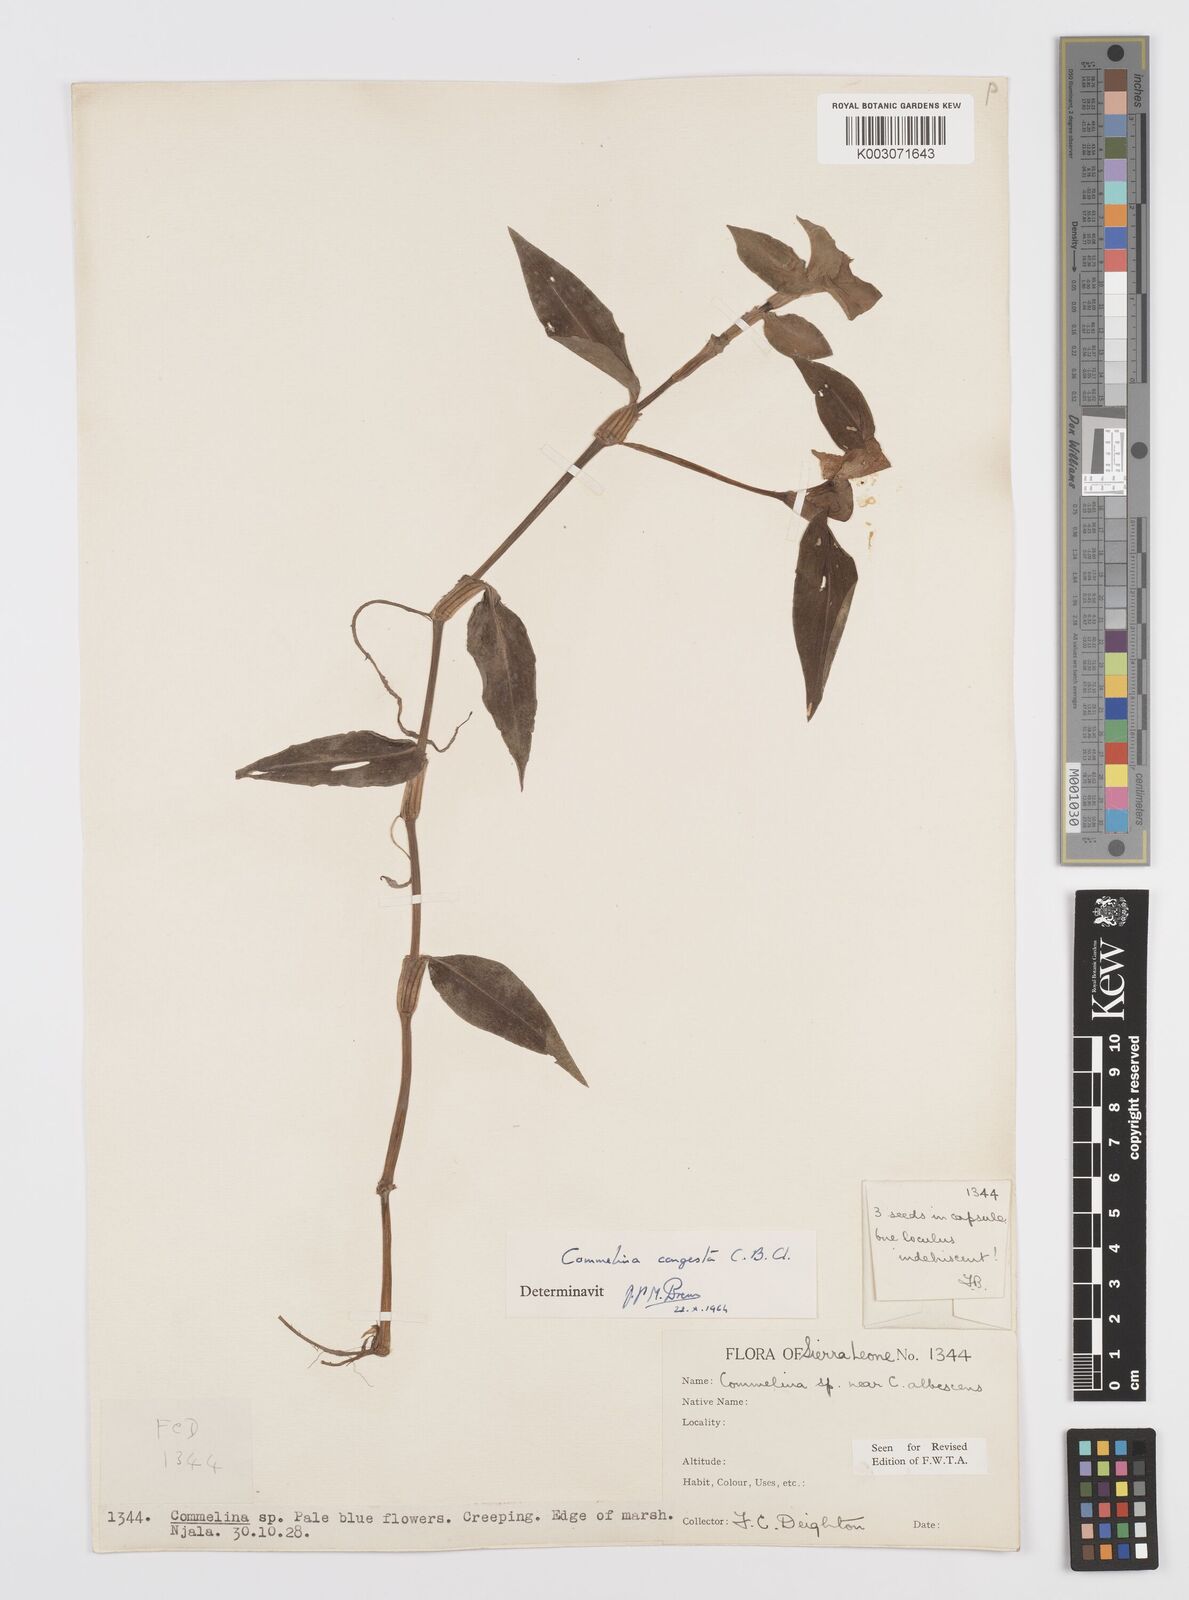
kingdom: Plantae
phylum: Tracheophyta
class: Liliopsida
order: Commelinales
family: Commelinaceae
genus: Commelina
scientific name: Commelina congesta
